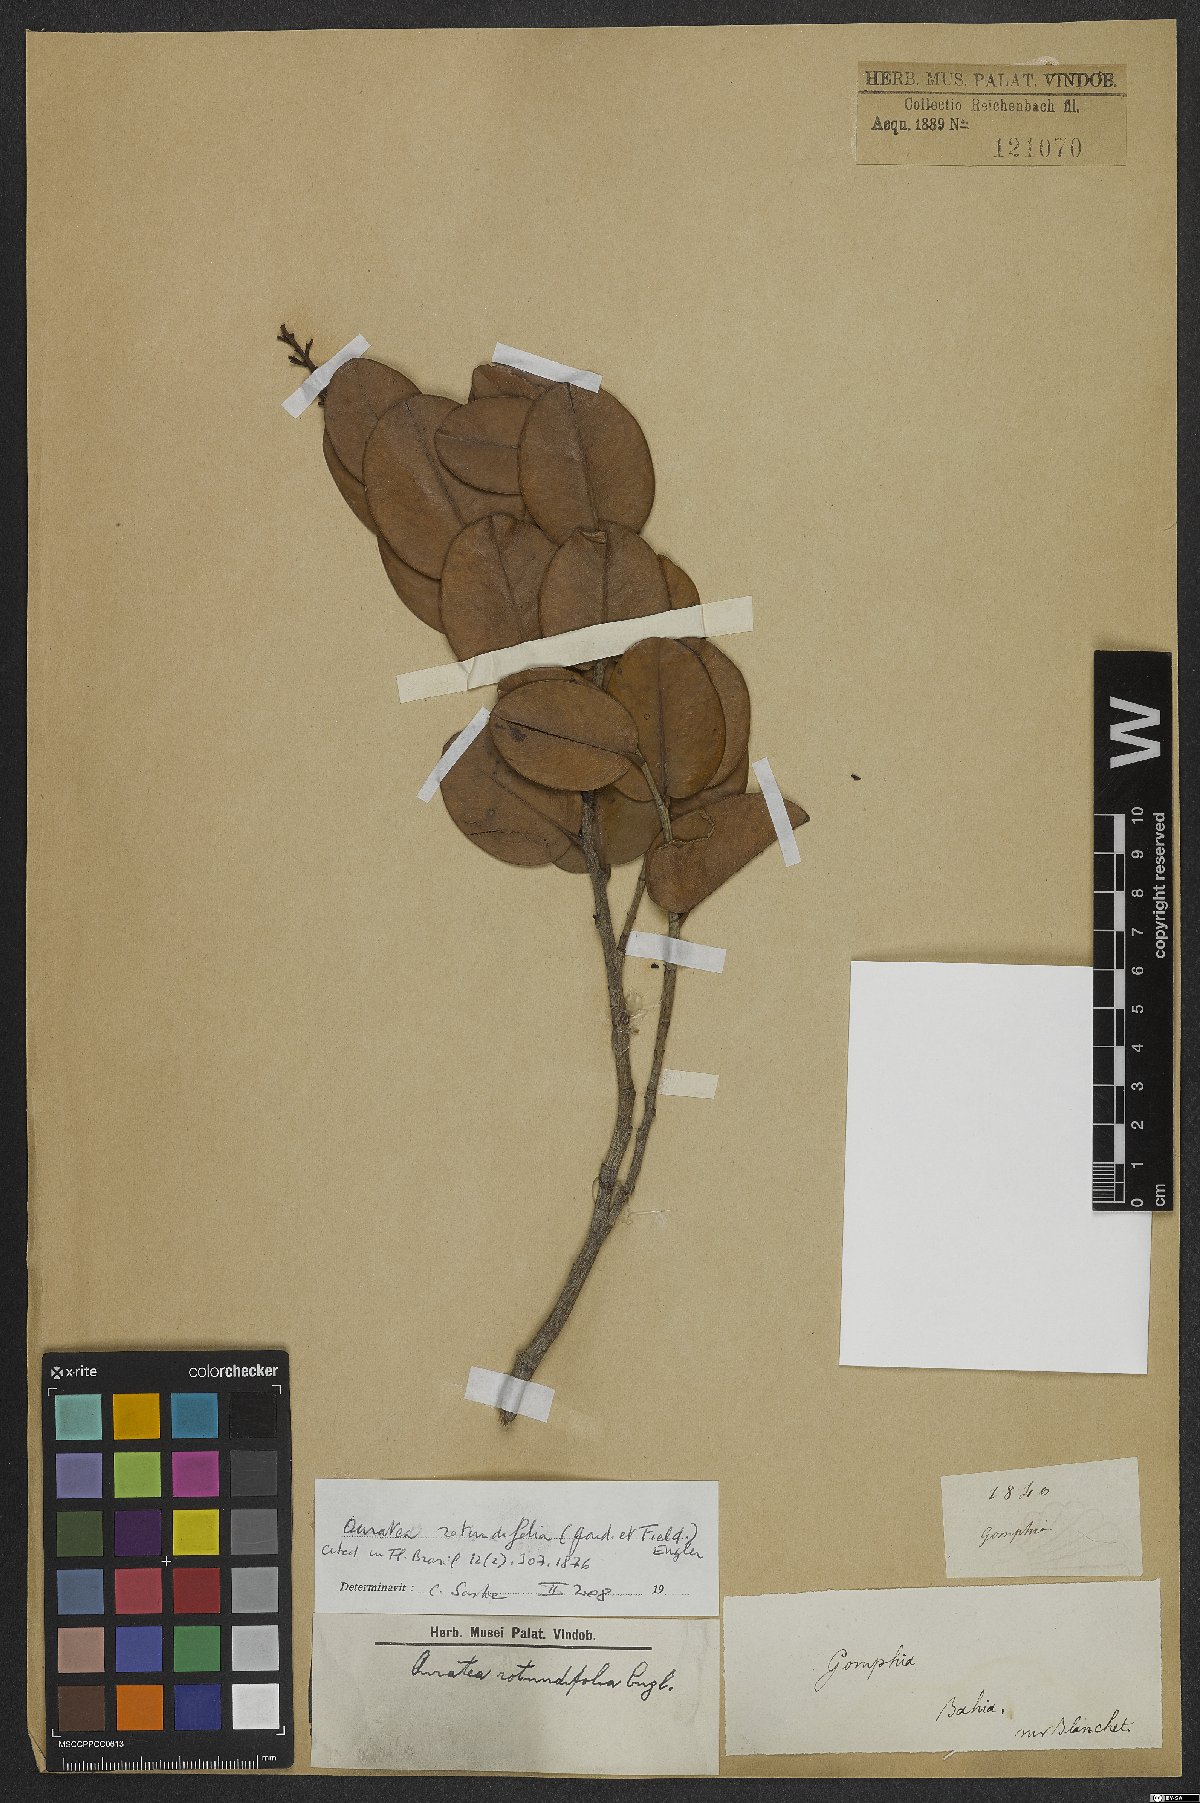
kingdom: Plantae
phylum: Tracheophyta
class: Magnoliopsida
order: Malpighiales
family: Ochnaceae
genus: Ouratea
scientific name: Ouratea rotundifolia
